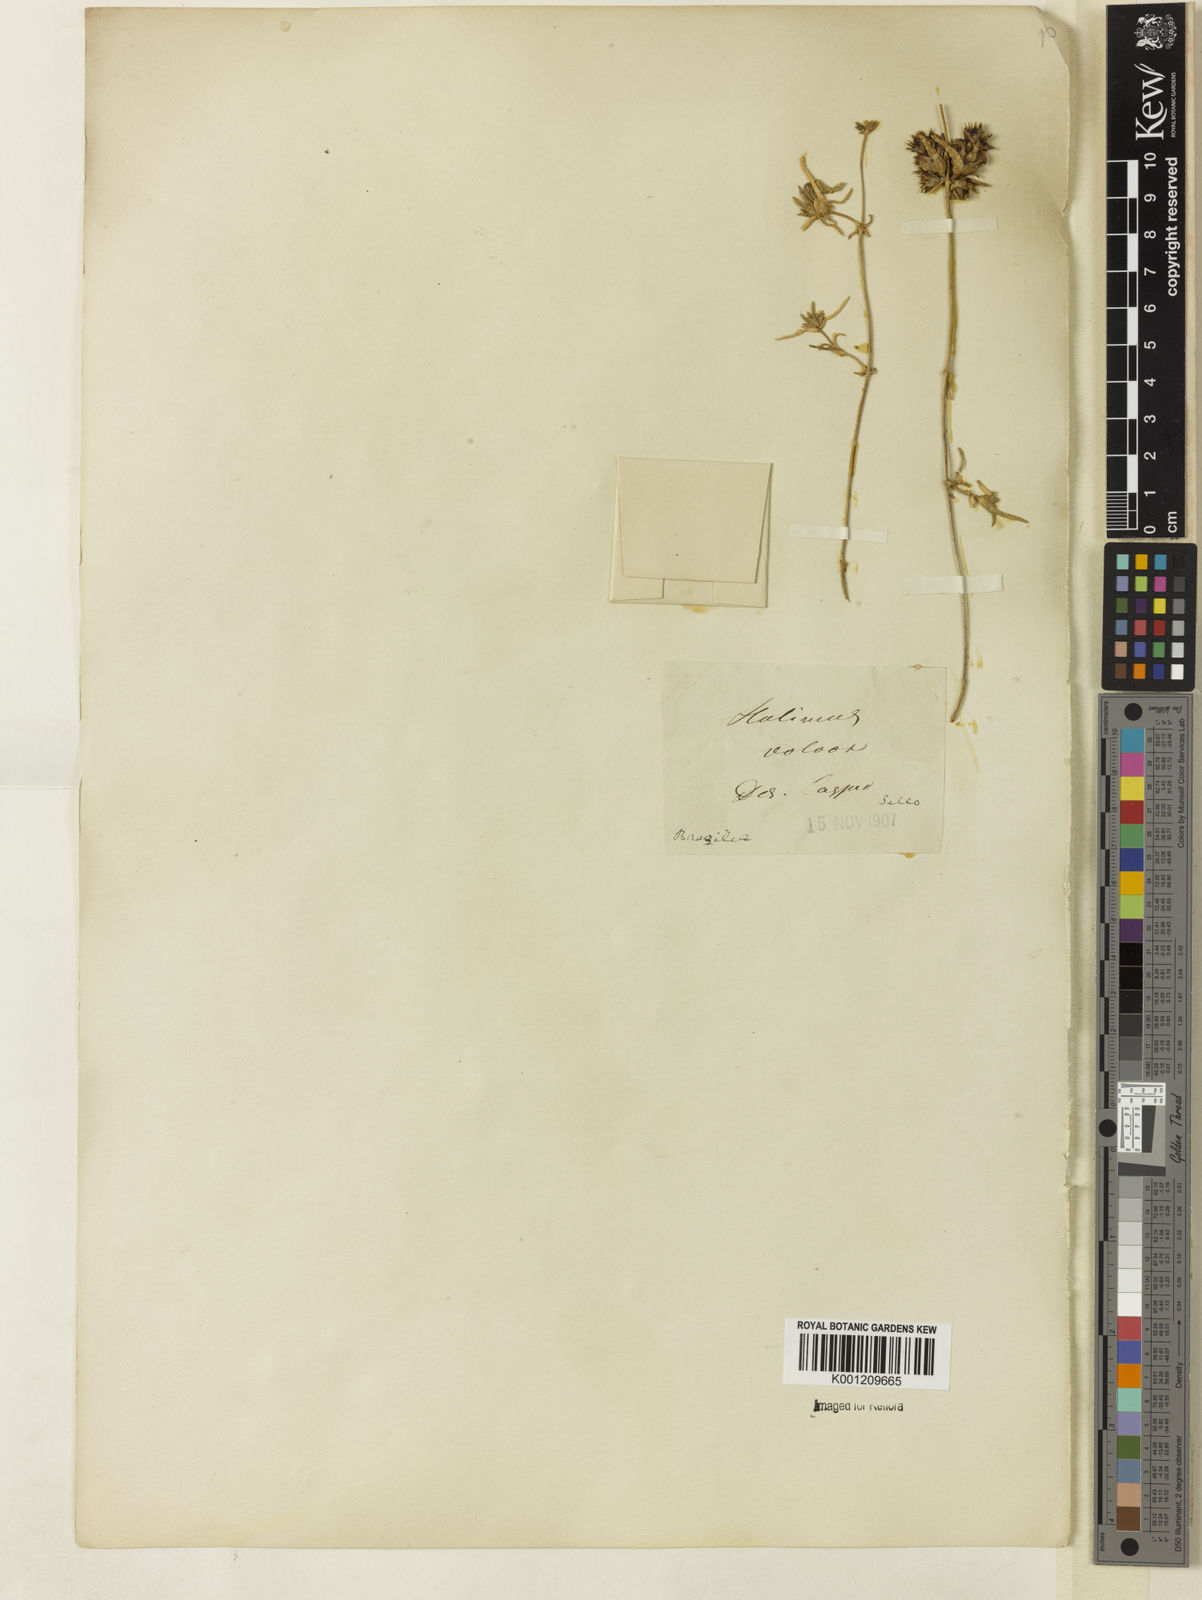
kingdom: Plantae
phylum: Tracheophyta
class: Magnoliopsida
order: Caryophyllales
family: Aizoaceae
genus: Halimus
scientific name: Halimus
